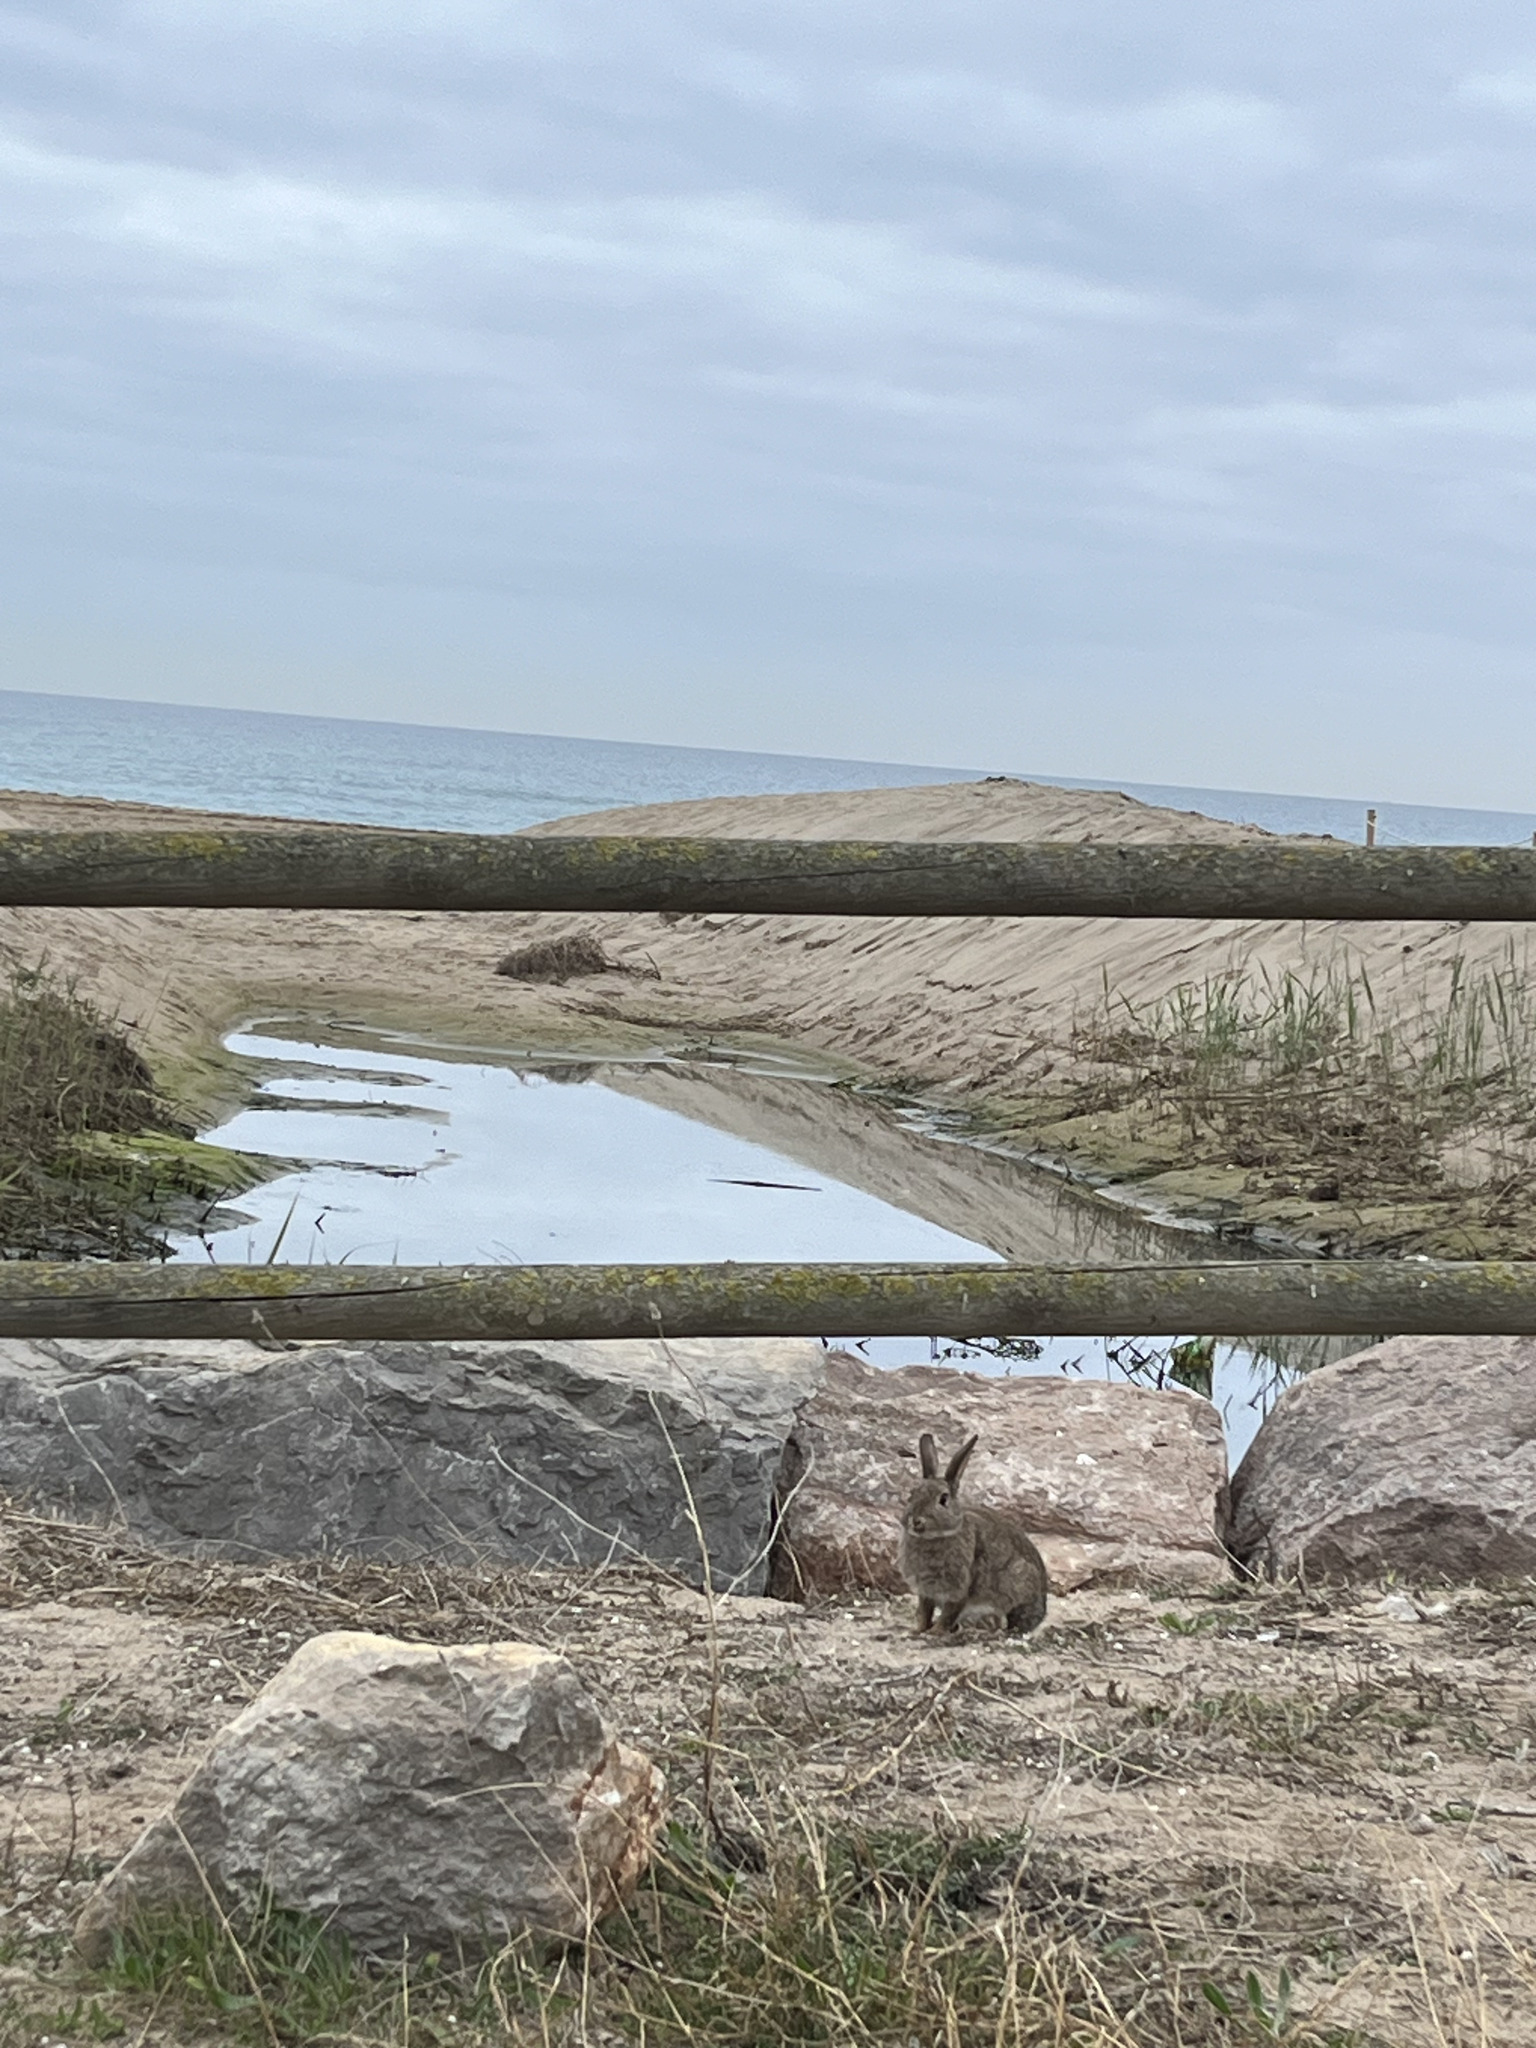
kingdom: Animalia
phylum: Chordata
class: Mammalia
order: Lagomorpha
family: Leporidae
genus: Oryctolagus
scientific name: Oryctolagus cuniculus
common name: European rabbit
